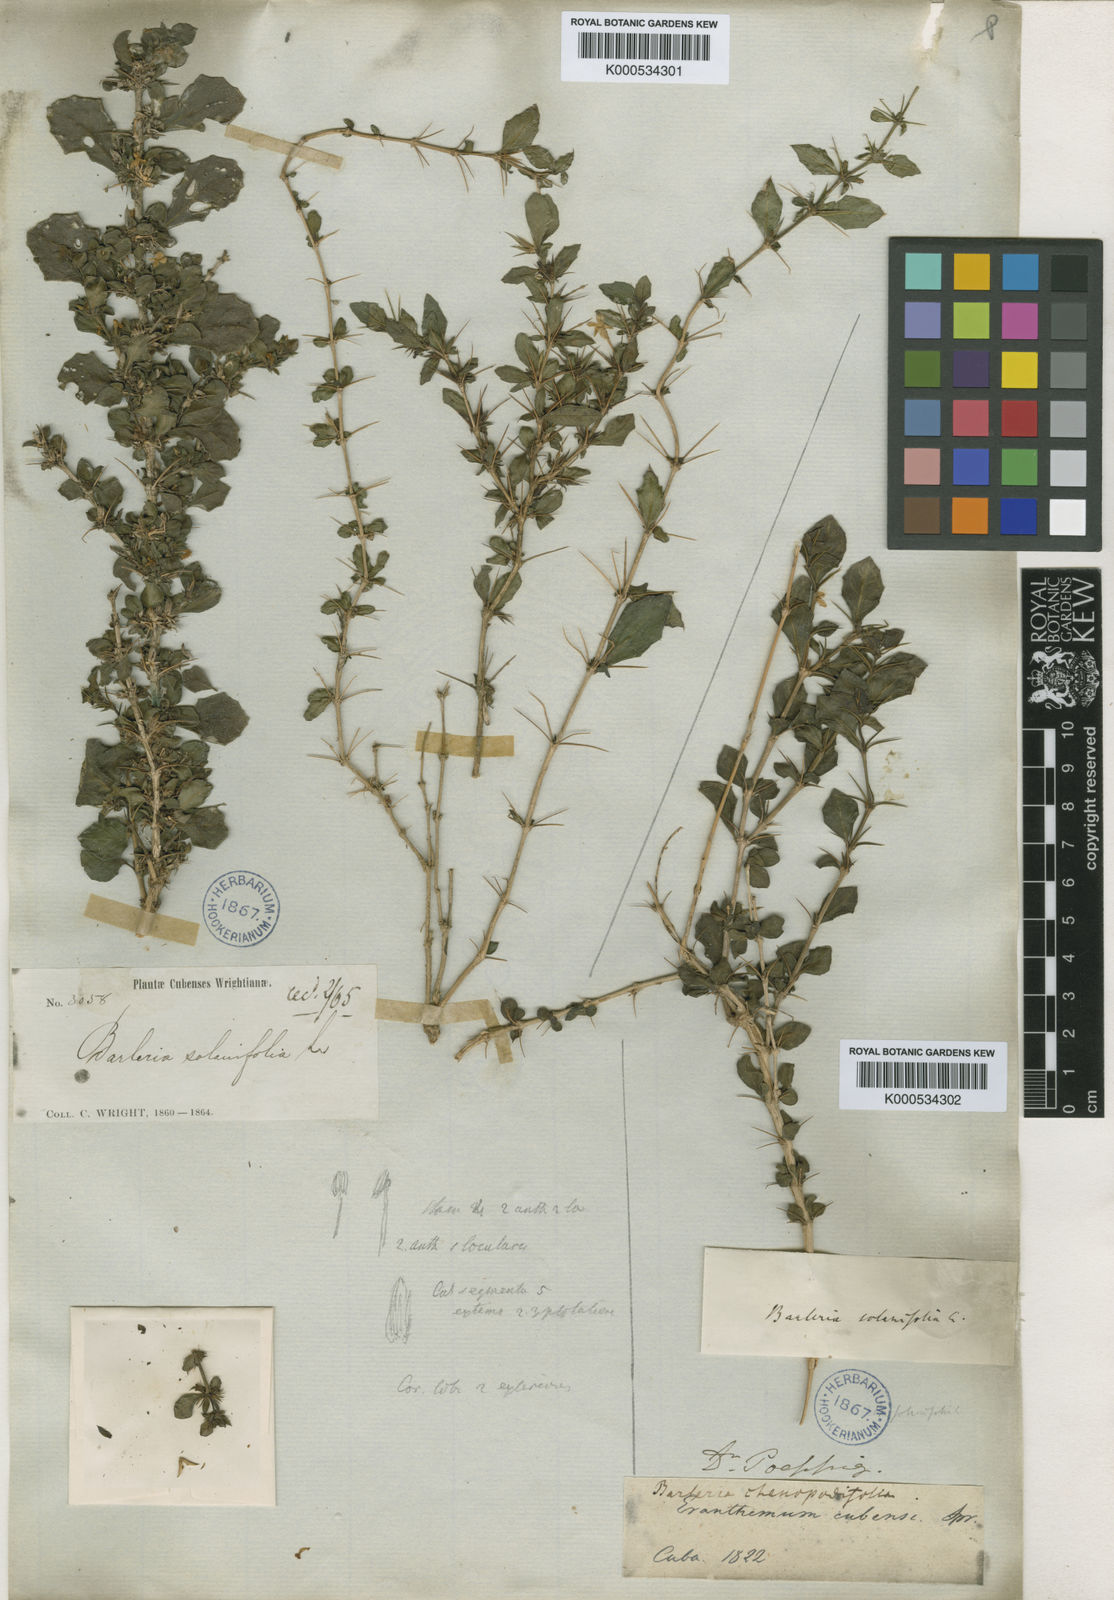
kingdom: Plantae
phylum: Tracheophyta
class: Magnoliopsida
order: Lamiales
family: Acanthaceae
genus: Barleriola
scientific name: Barleriola solanifolia
